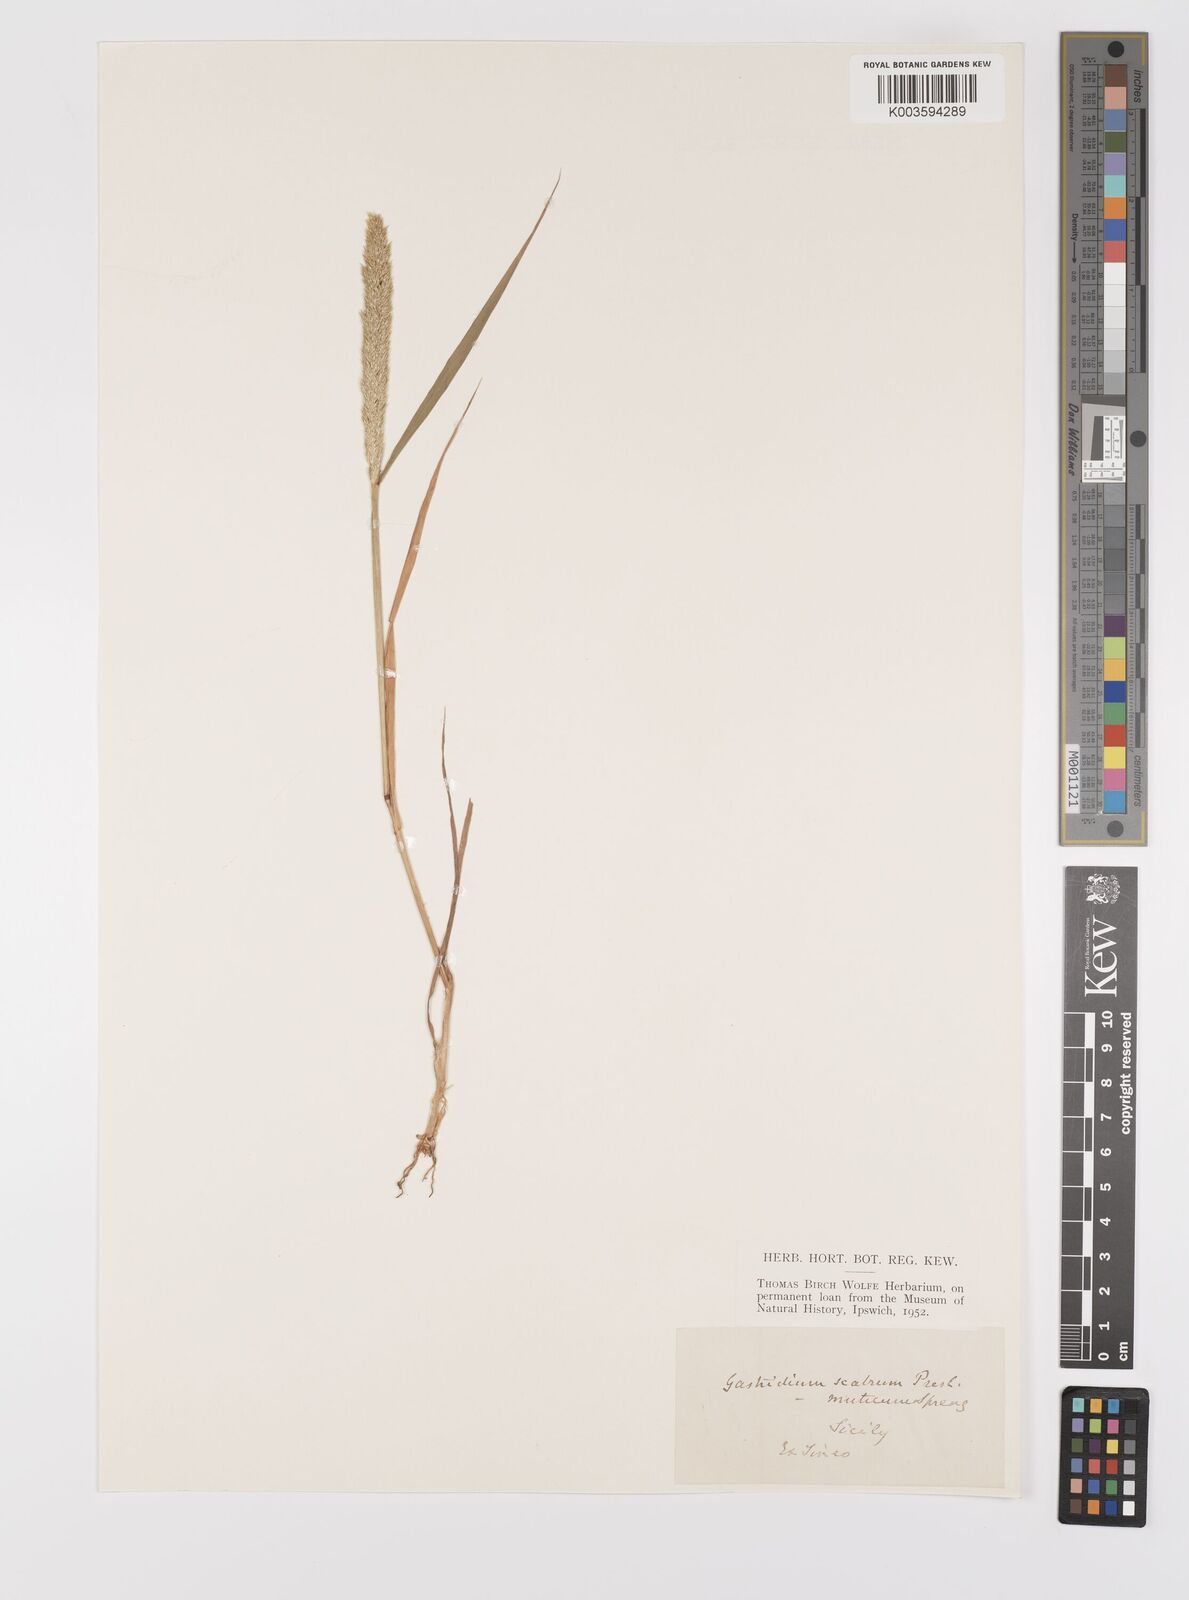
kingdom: Plantae
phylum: Tracheophyta
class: Liliopsida
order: Poales
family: Poaceae
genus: Gastridium
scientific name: Gastridium ventricosum
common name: Nit-grass
